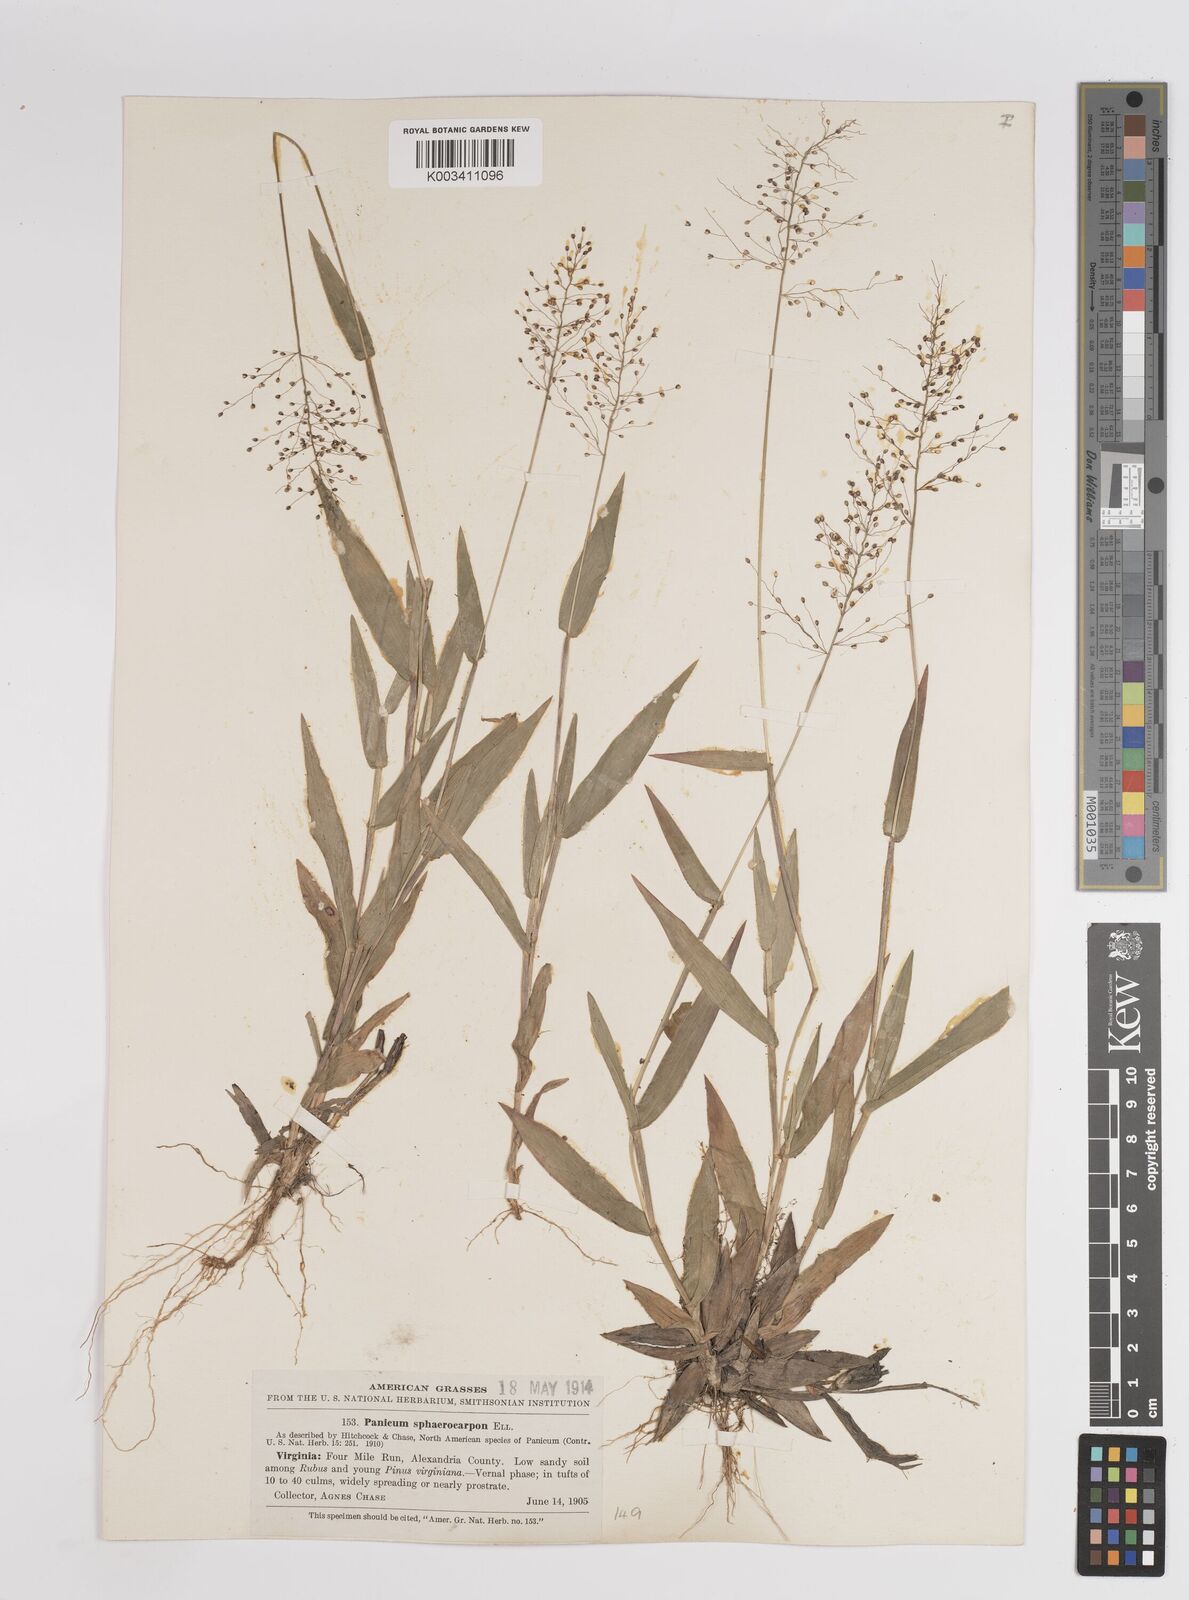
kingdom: Plantae
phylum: Tracheophyta
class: Liliopsida
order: Poales
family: Poaceae
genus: Dichanthelium
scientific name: Dichanthelium sphaerocarpon
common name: Round-fruited panicgrass
